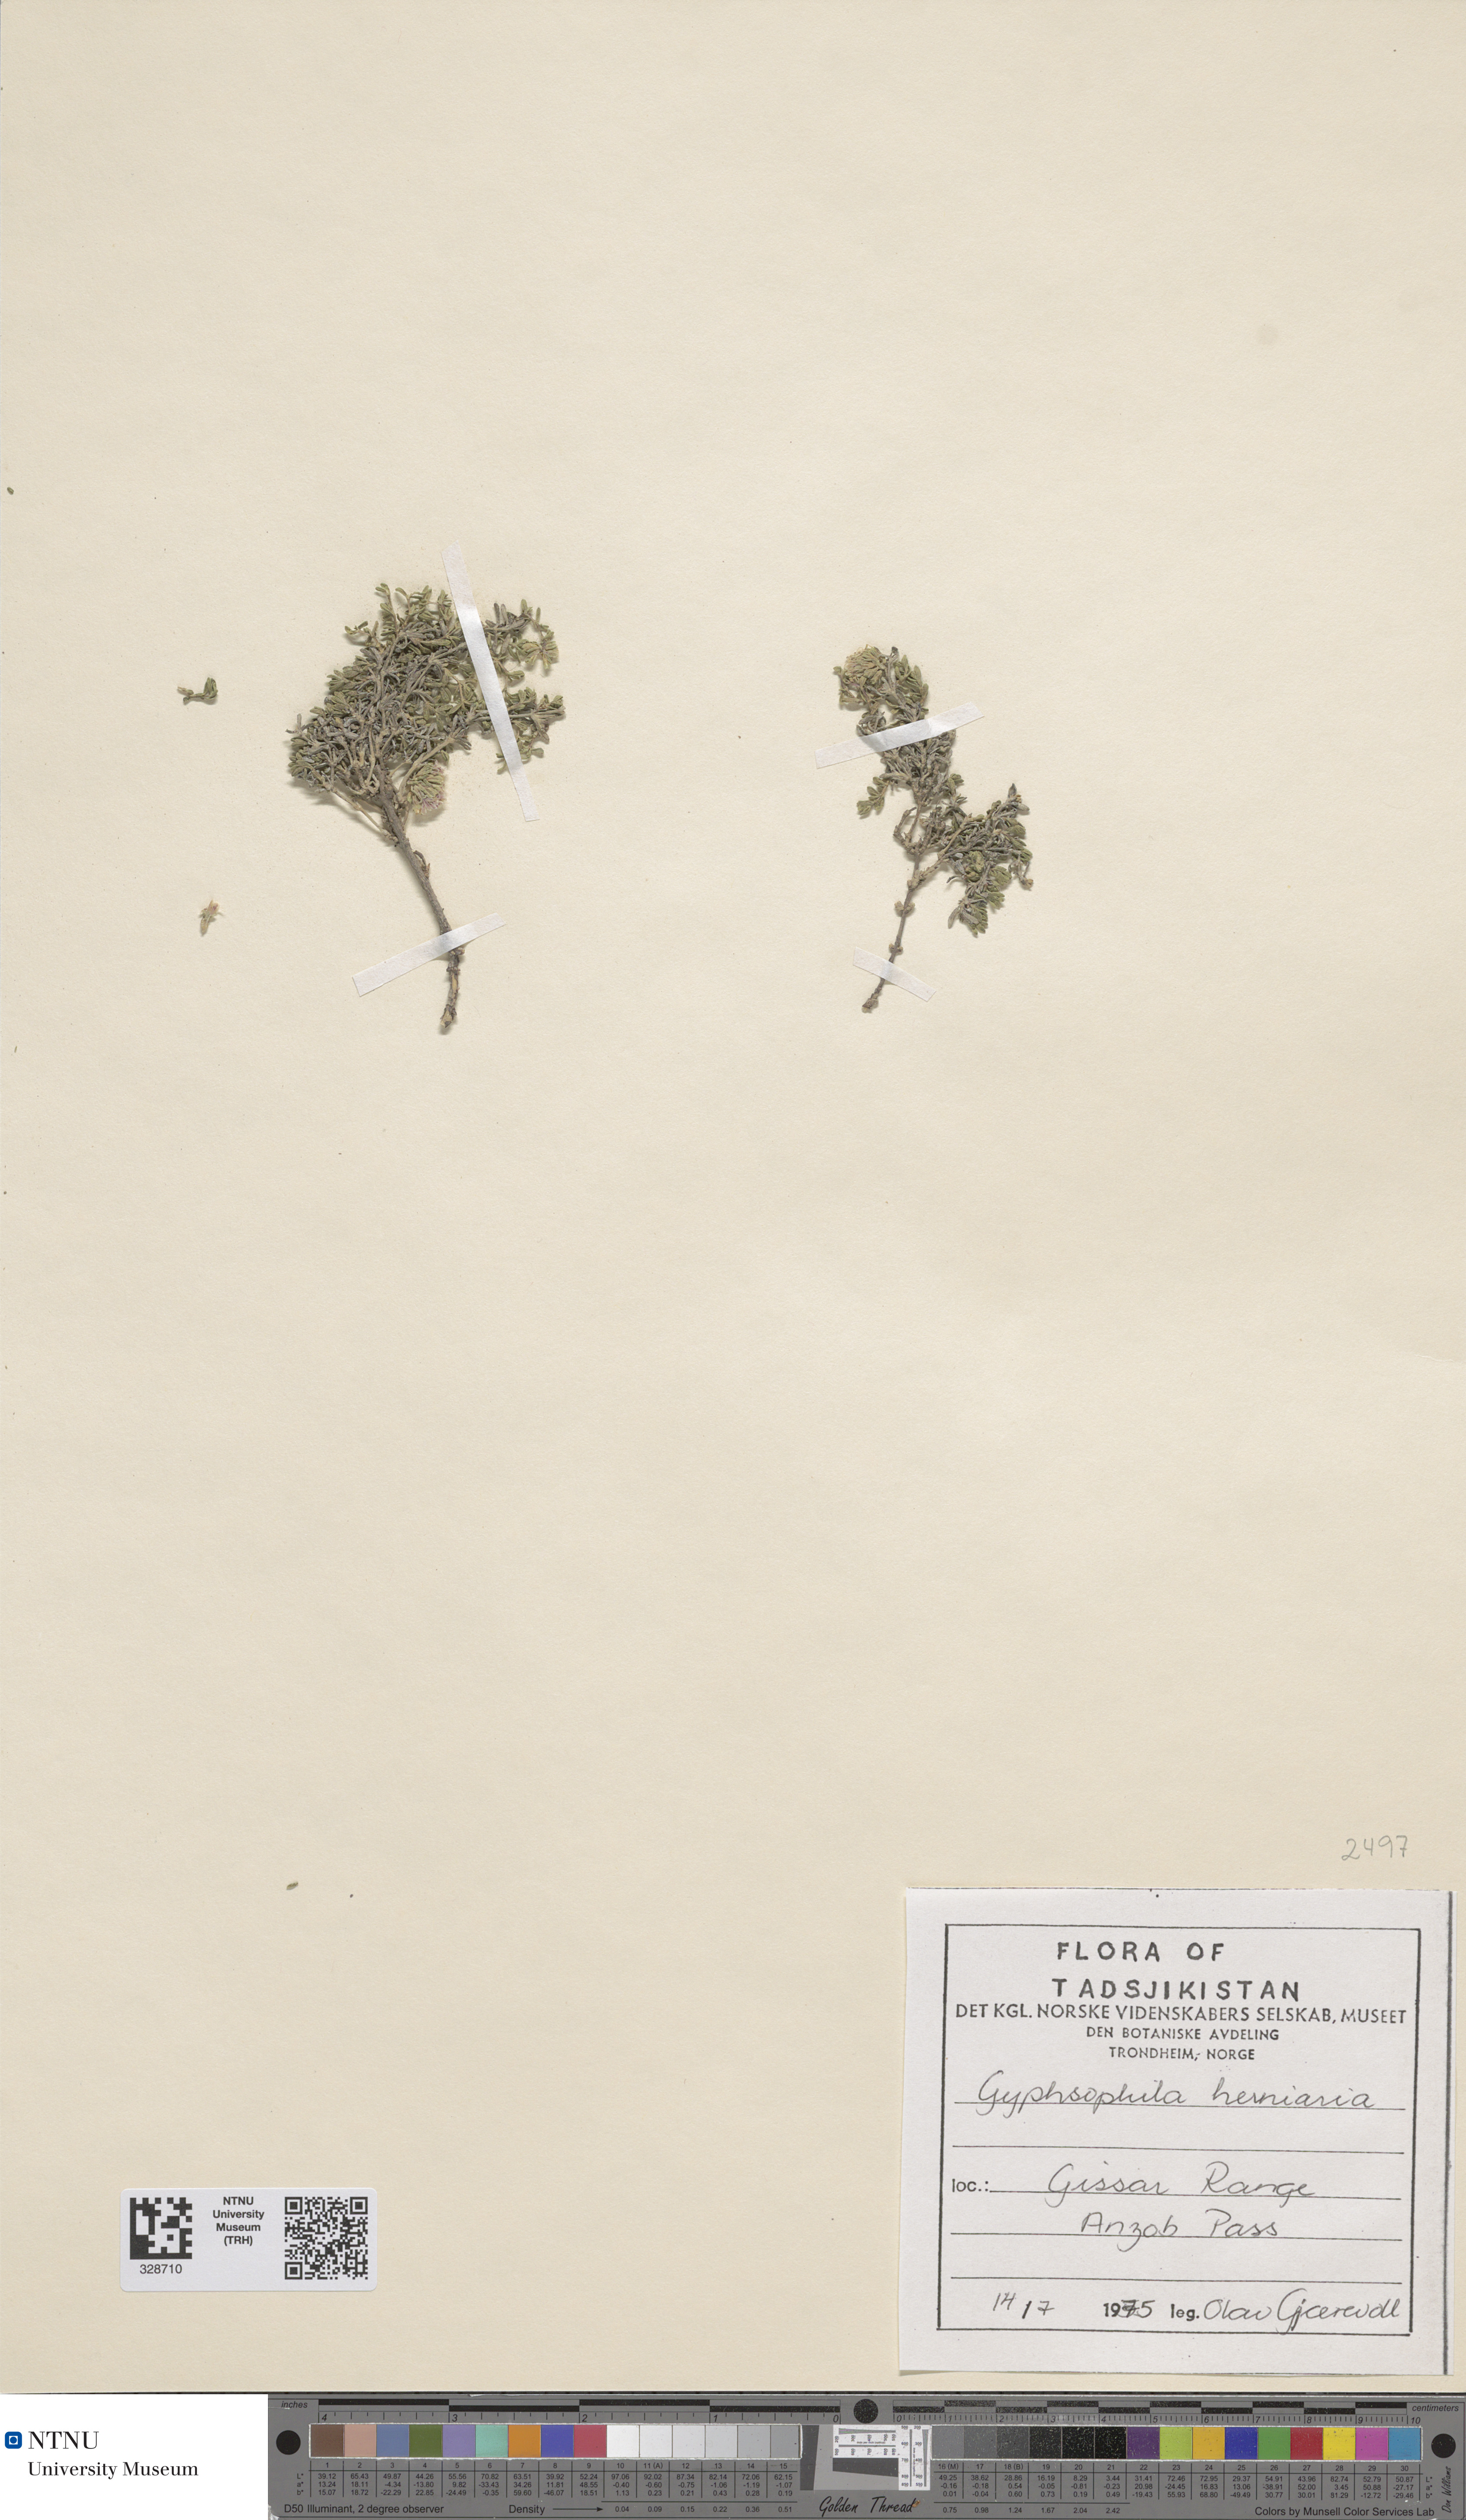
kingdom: Plantae
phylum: Tracheophyta
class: Magnoliopsida
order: Caryophyllales
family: Caryophyllaceae
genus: Acanthophyllum
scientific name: Acanthophyllum herniarioides
